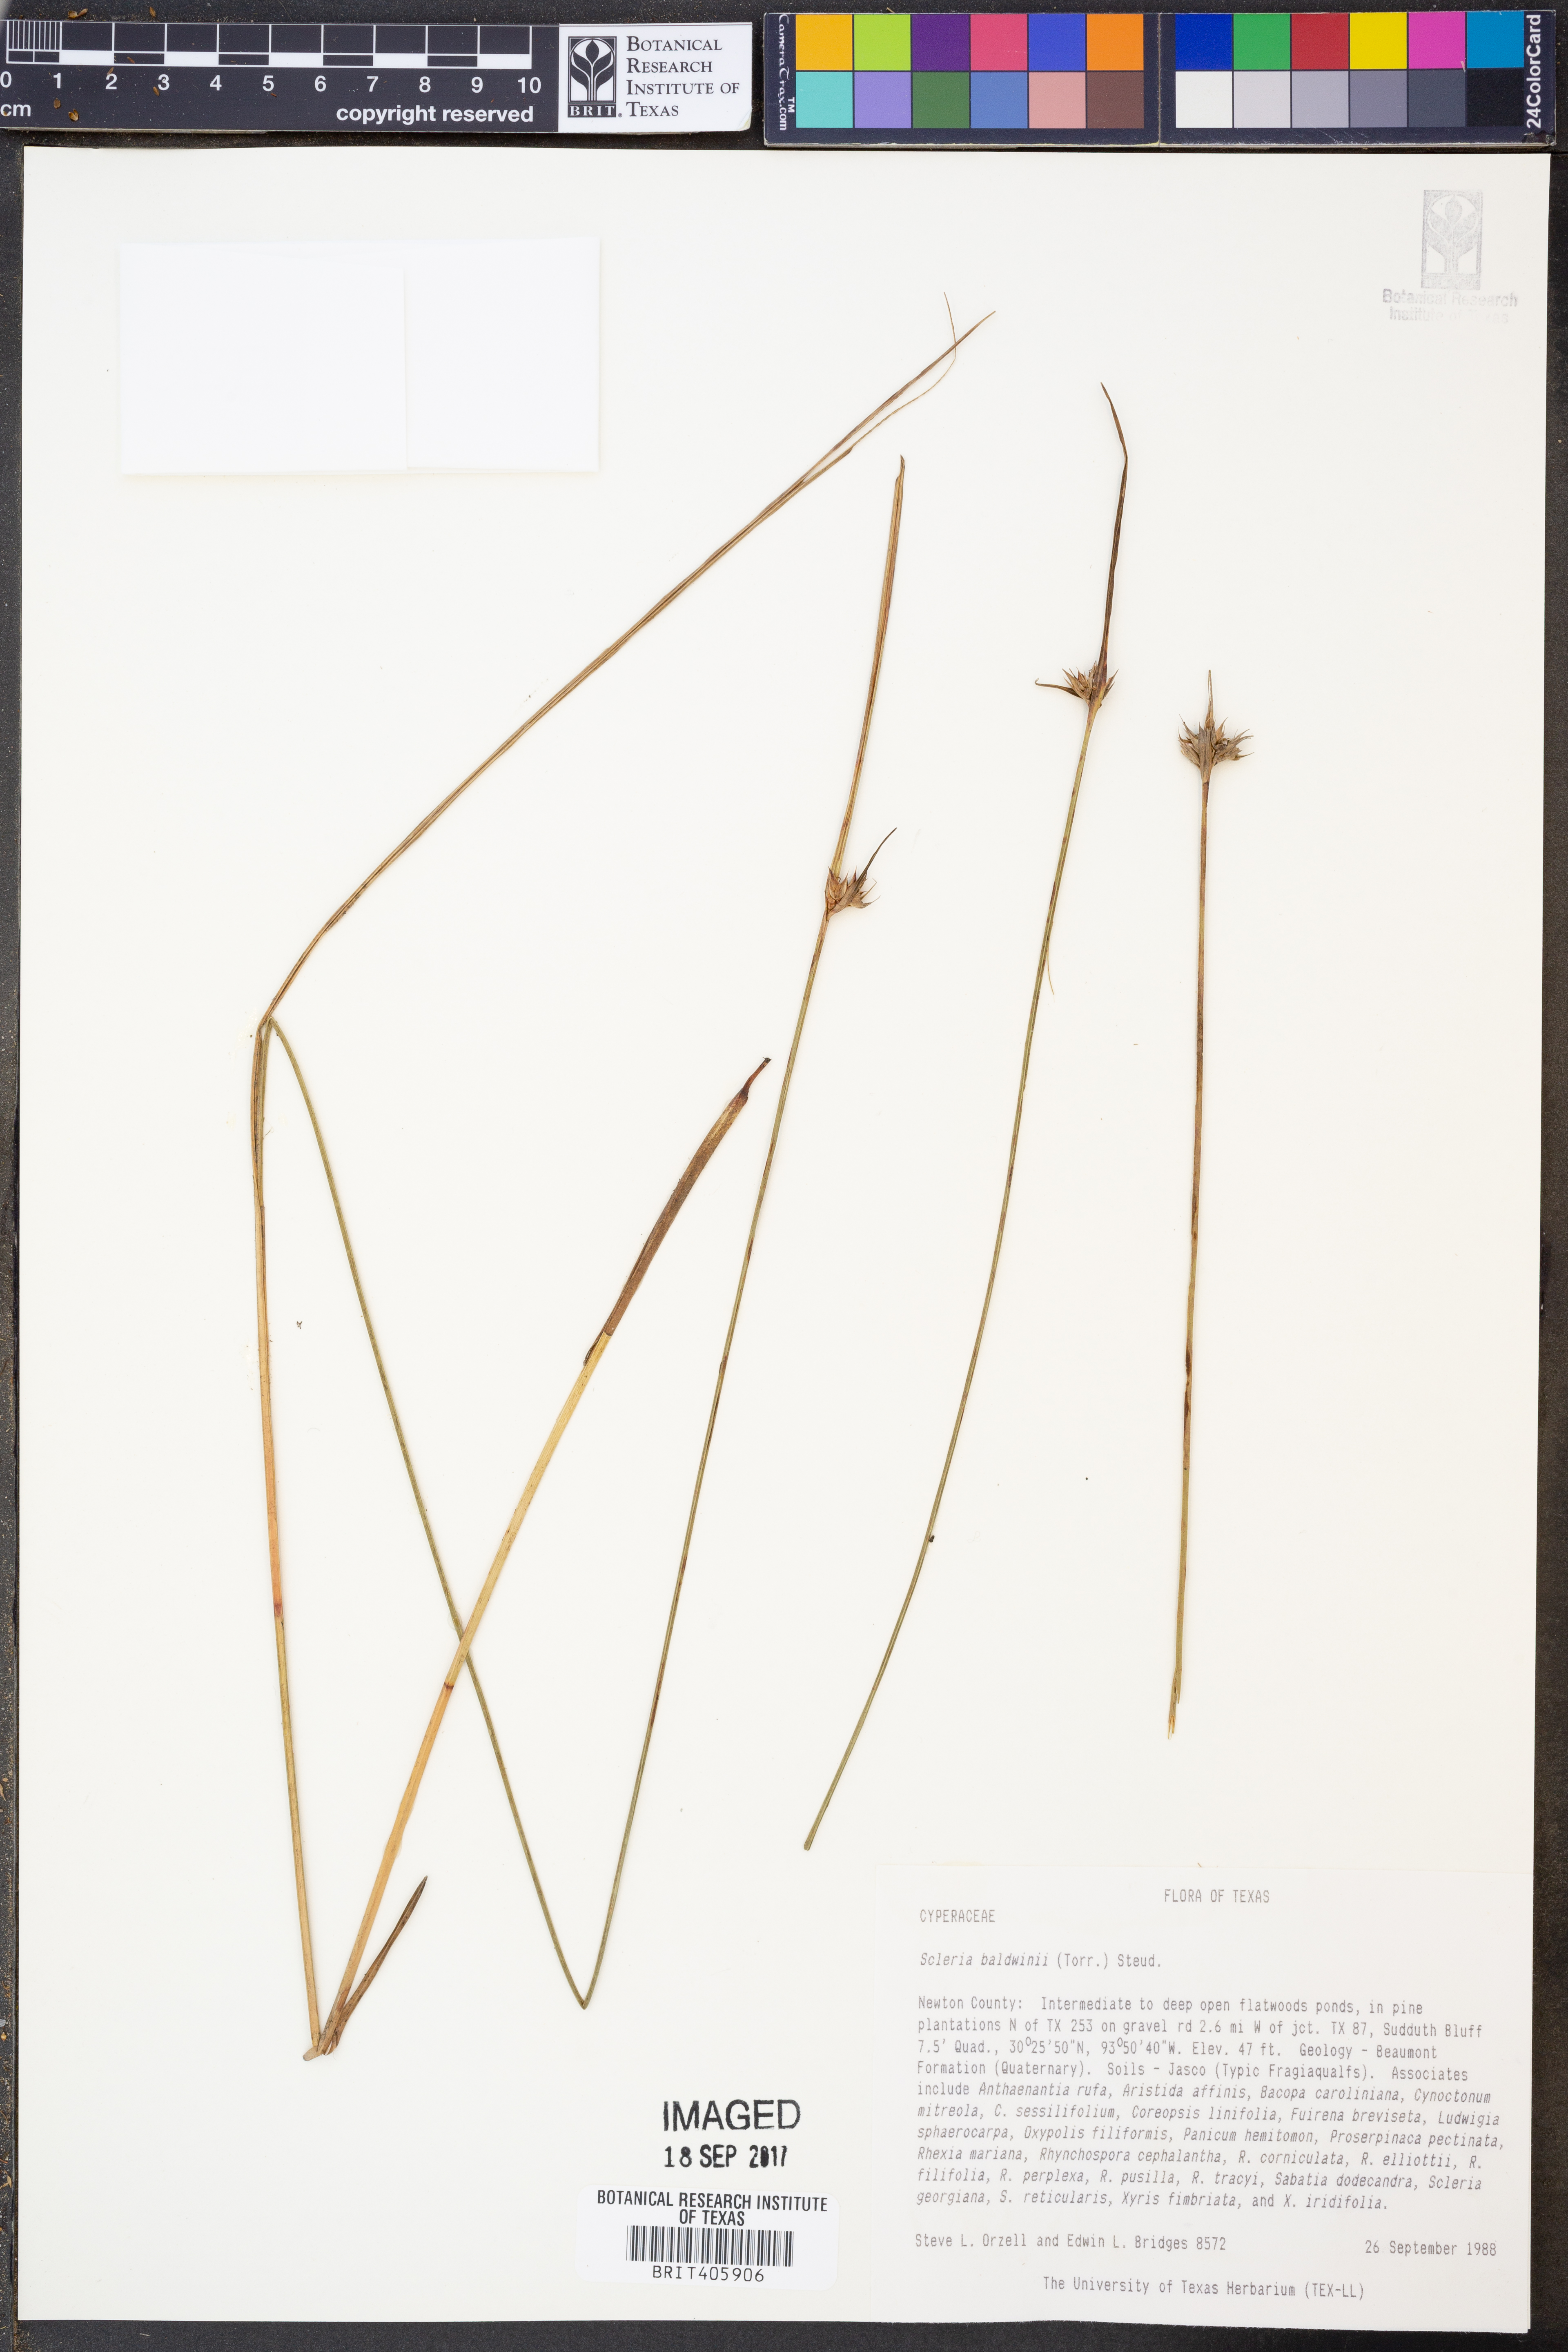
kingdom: Plantae
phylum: Tracheophyta
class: Liliopsida
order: Poales
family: Cyperaceae
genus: Scleria
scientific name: Scleria baldwinii
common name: Baldwin's nutrush
